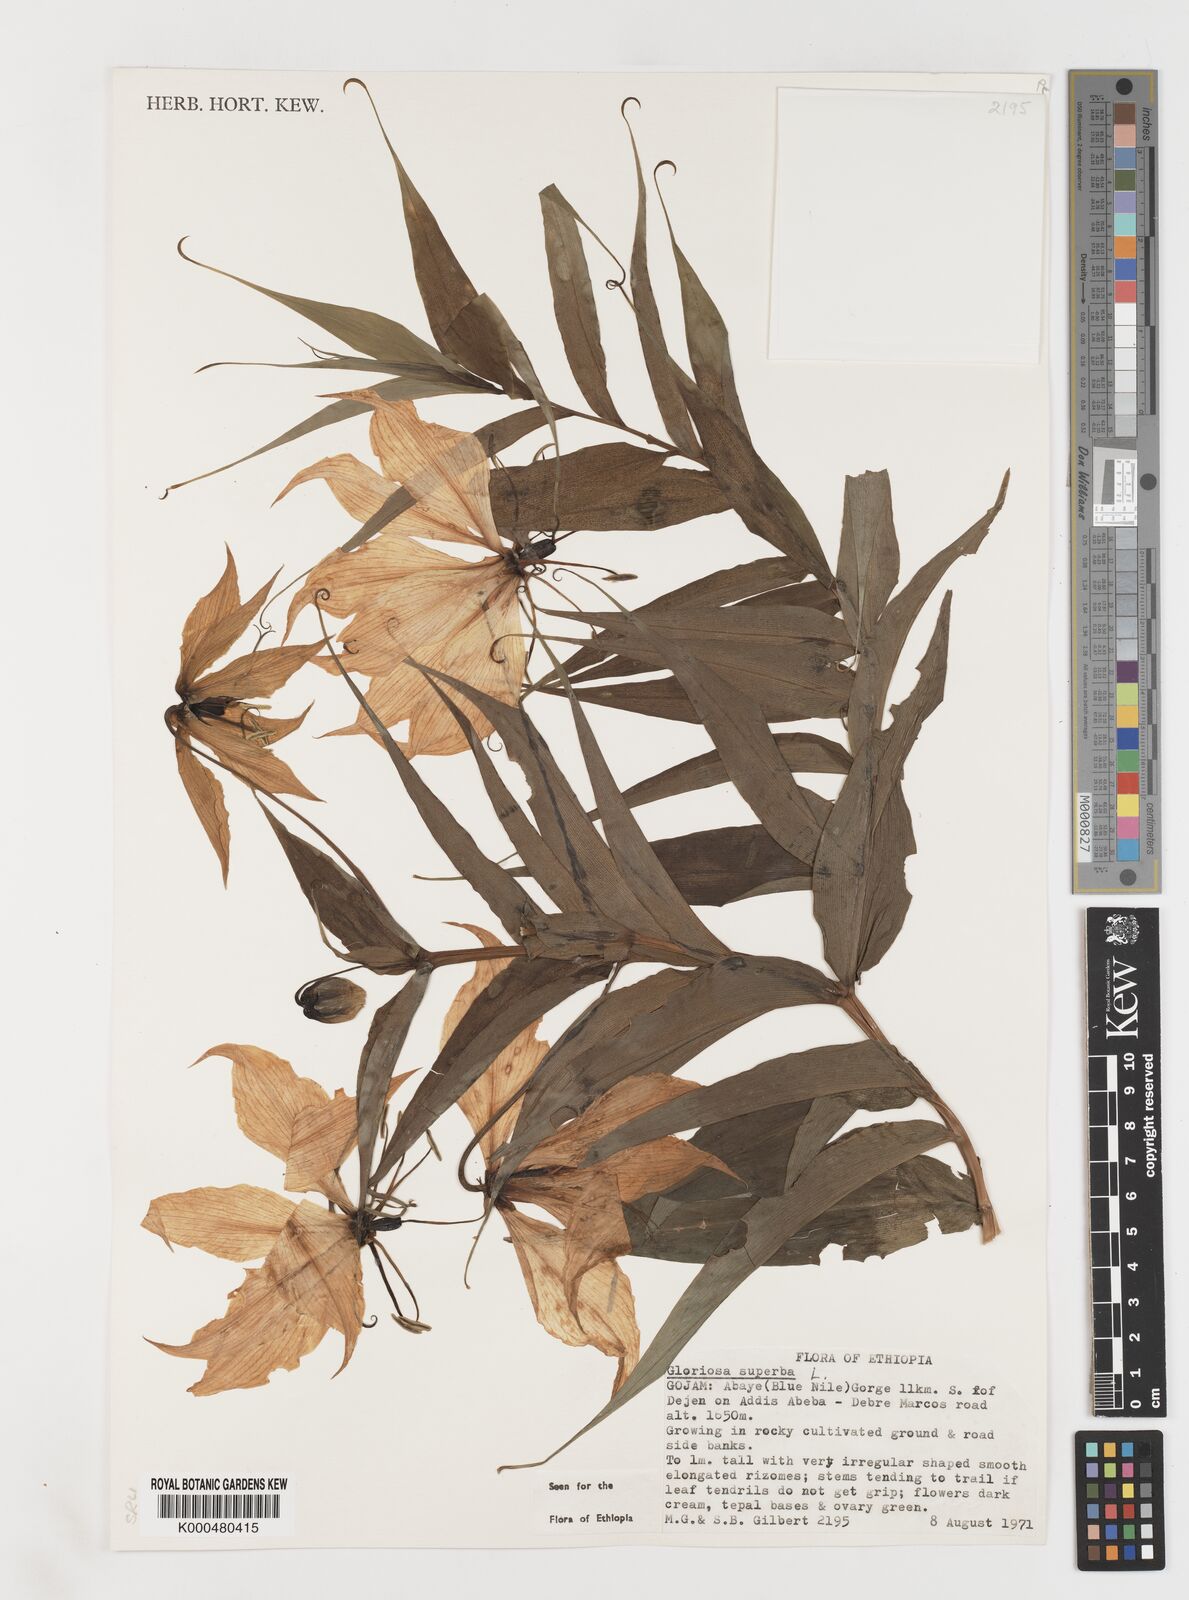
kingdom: Plantae
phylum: Tracheophyta
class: Liliopsida
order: Liliales
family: Colchicaceae
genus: Gloriosa
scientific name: Gloriosa superba
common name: Flame lily
